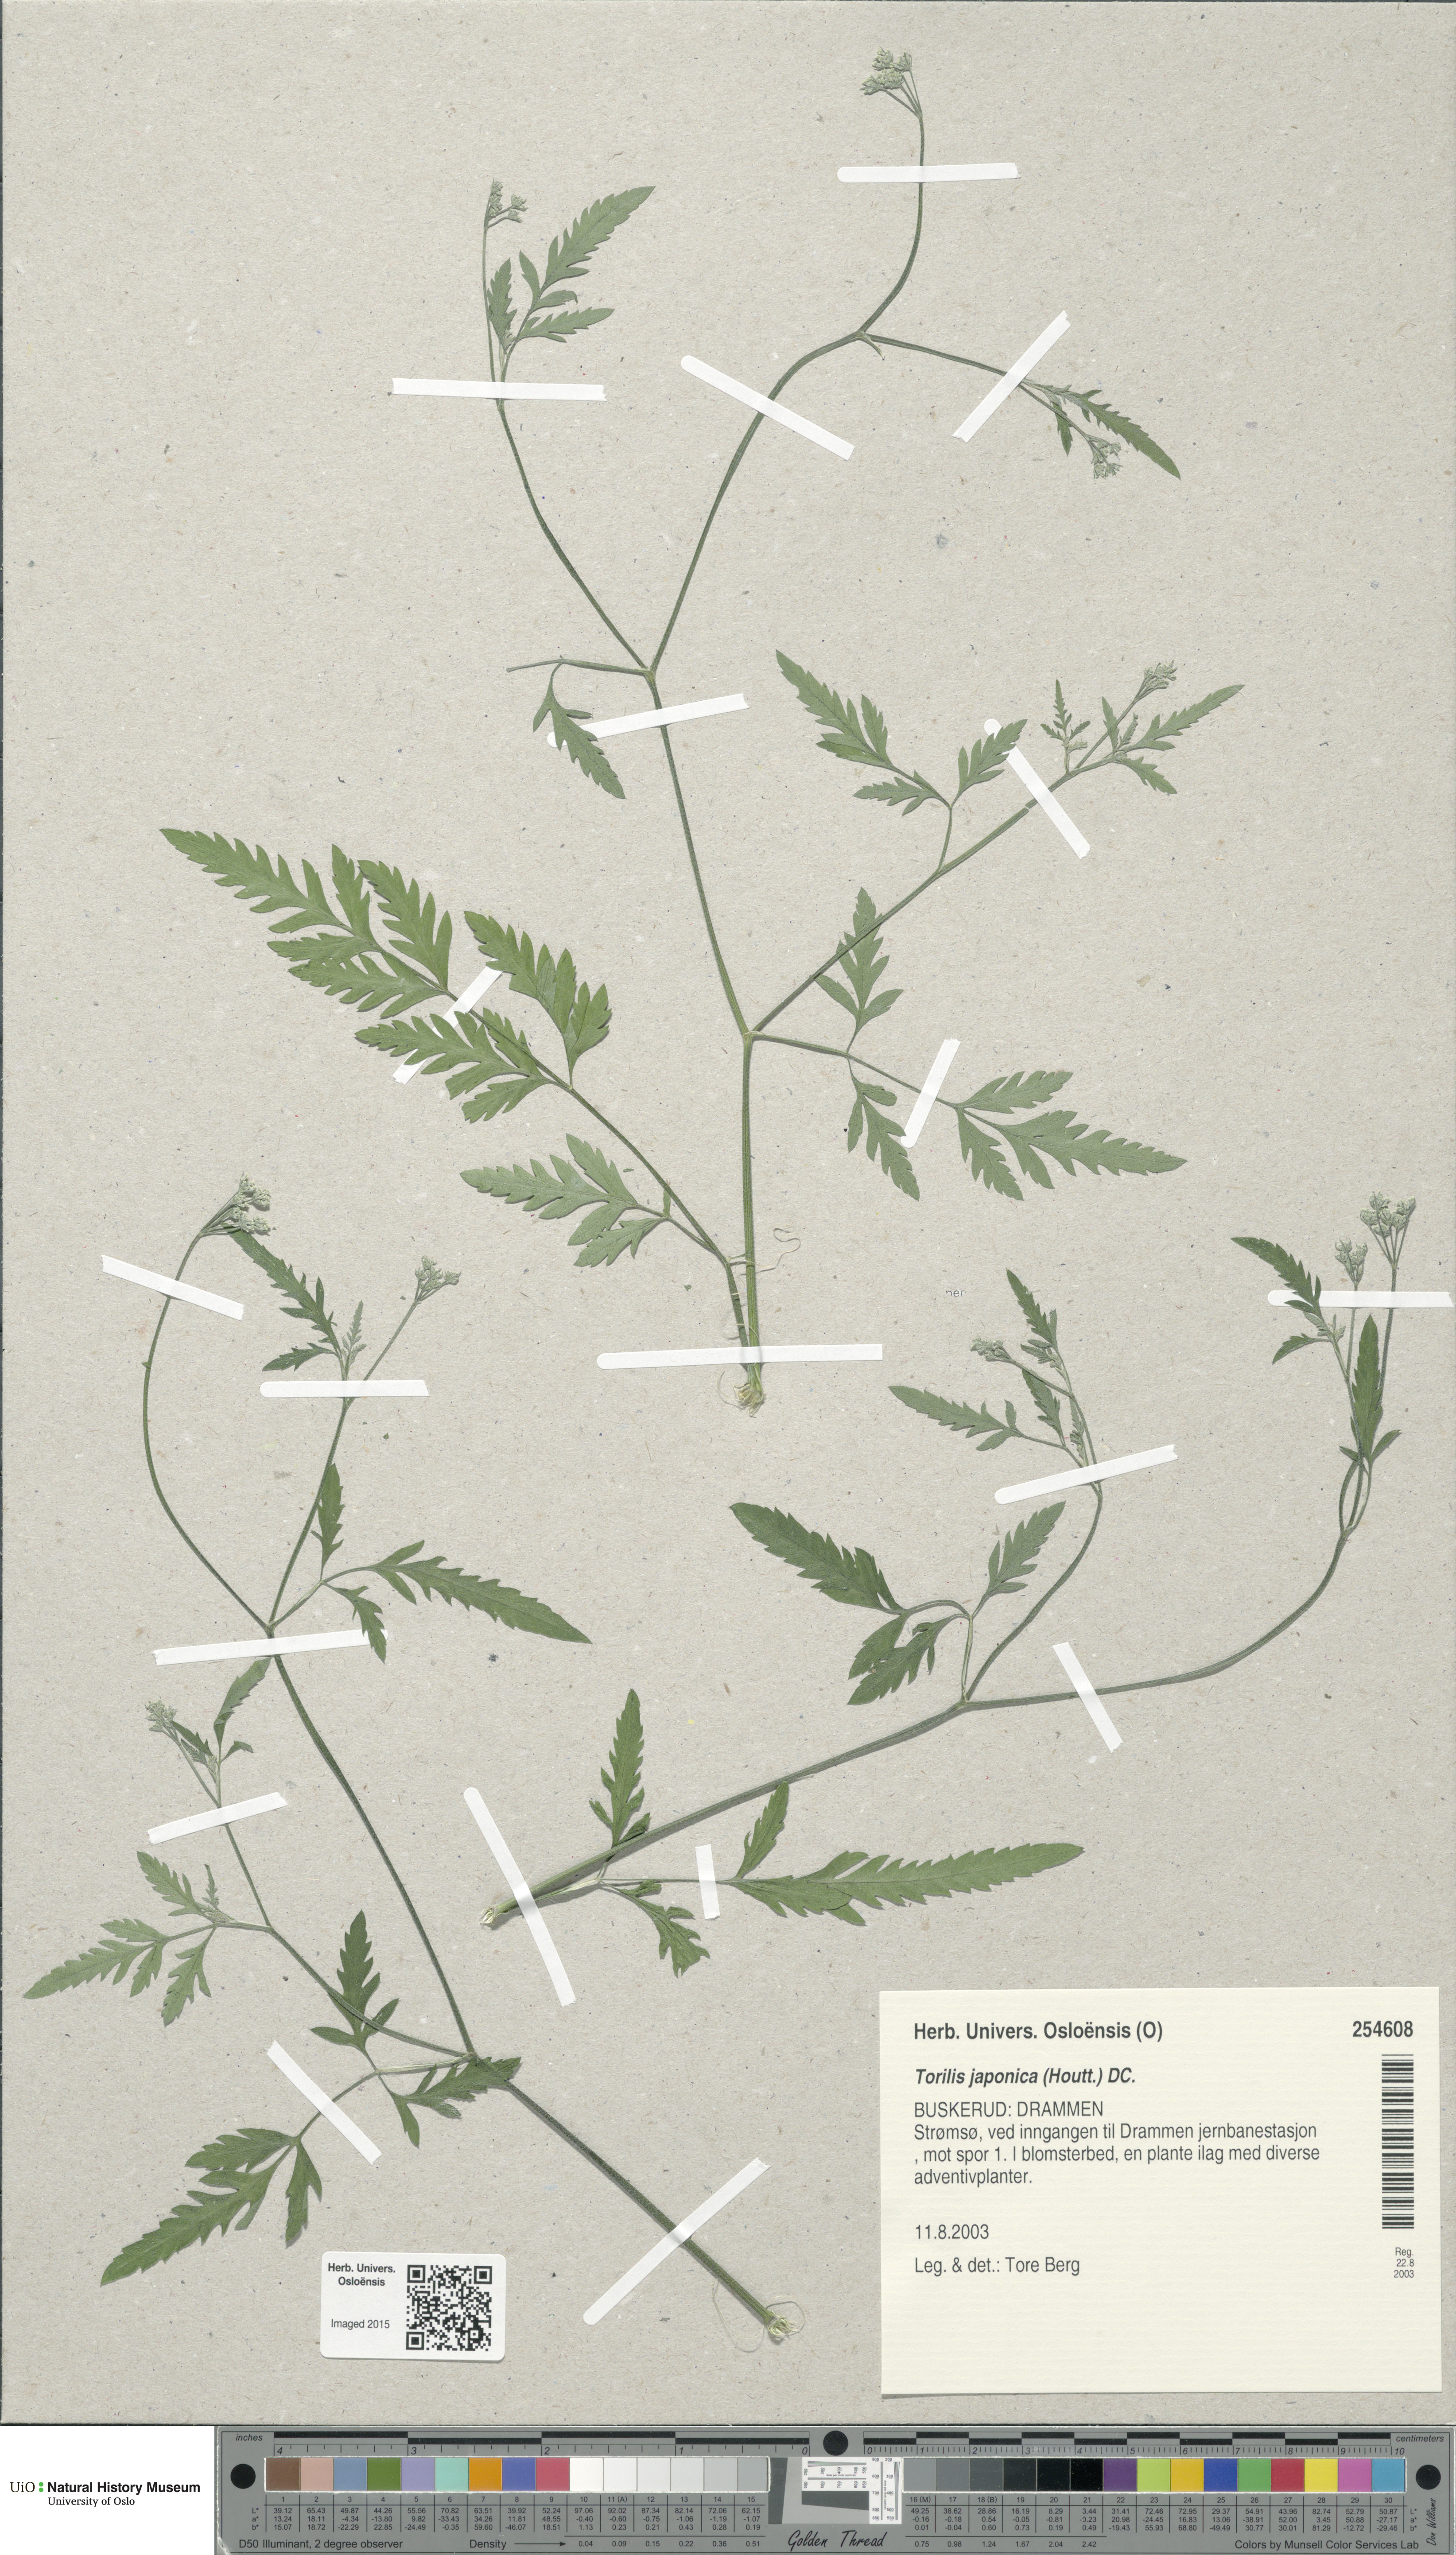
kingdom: Plantae
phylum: Tracheophyta
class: Magnoliopsida
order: Apiales
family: Apiaceae
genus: Torilis
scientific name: Torilis japonica
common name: Upright hedge-parsley
